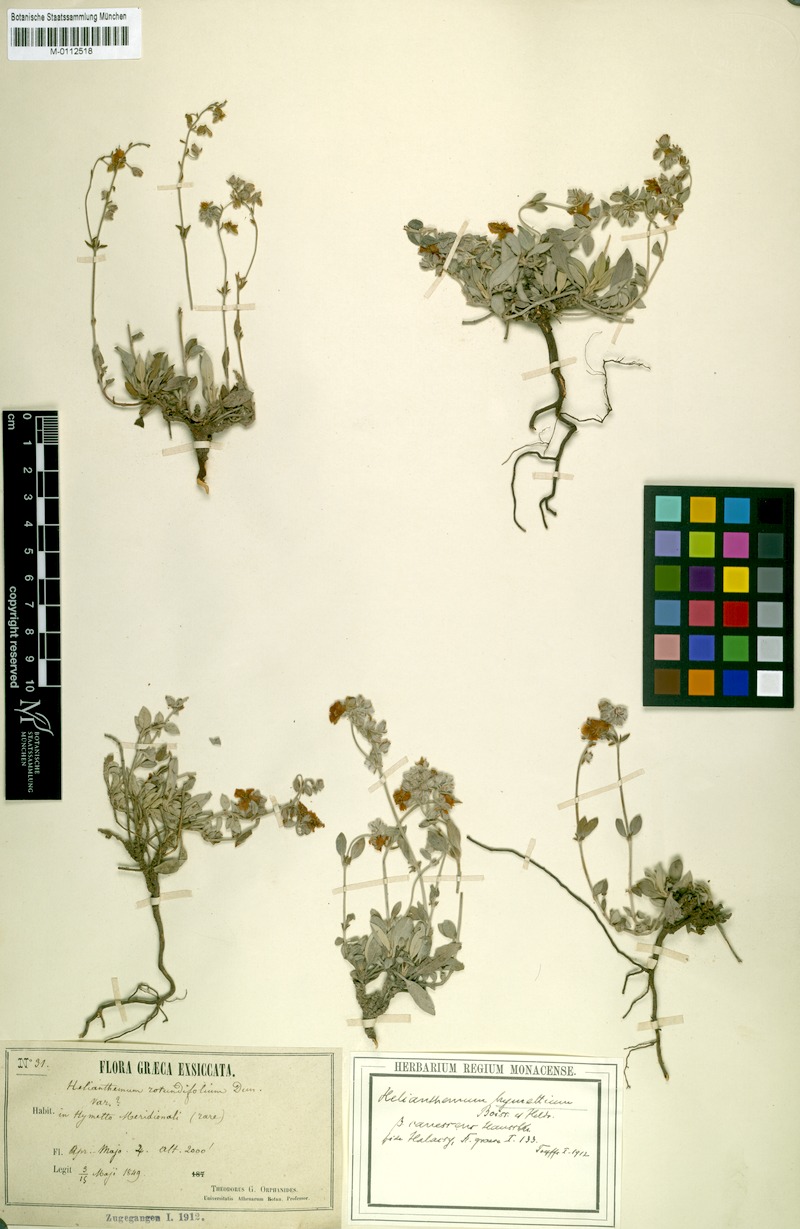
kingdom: Plantae
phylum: Tracheophyta
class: Magnoliopsida
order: Malvales
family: Cistaceae
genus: Helianthemum
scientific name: Helianthemum hymettium
